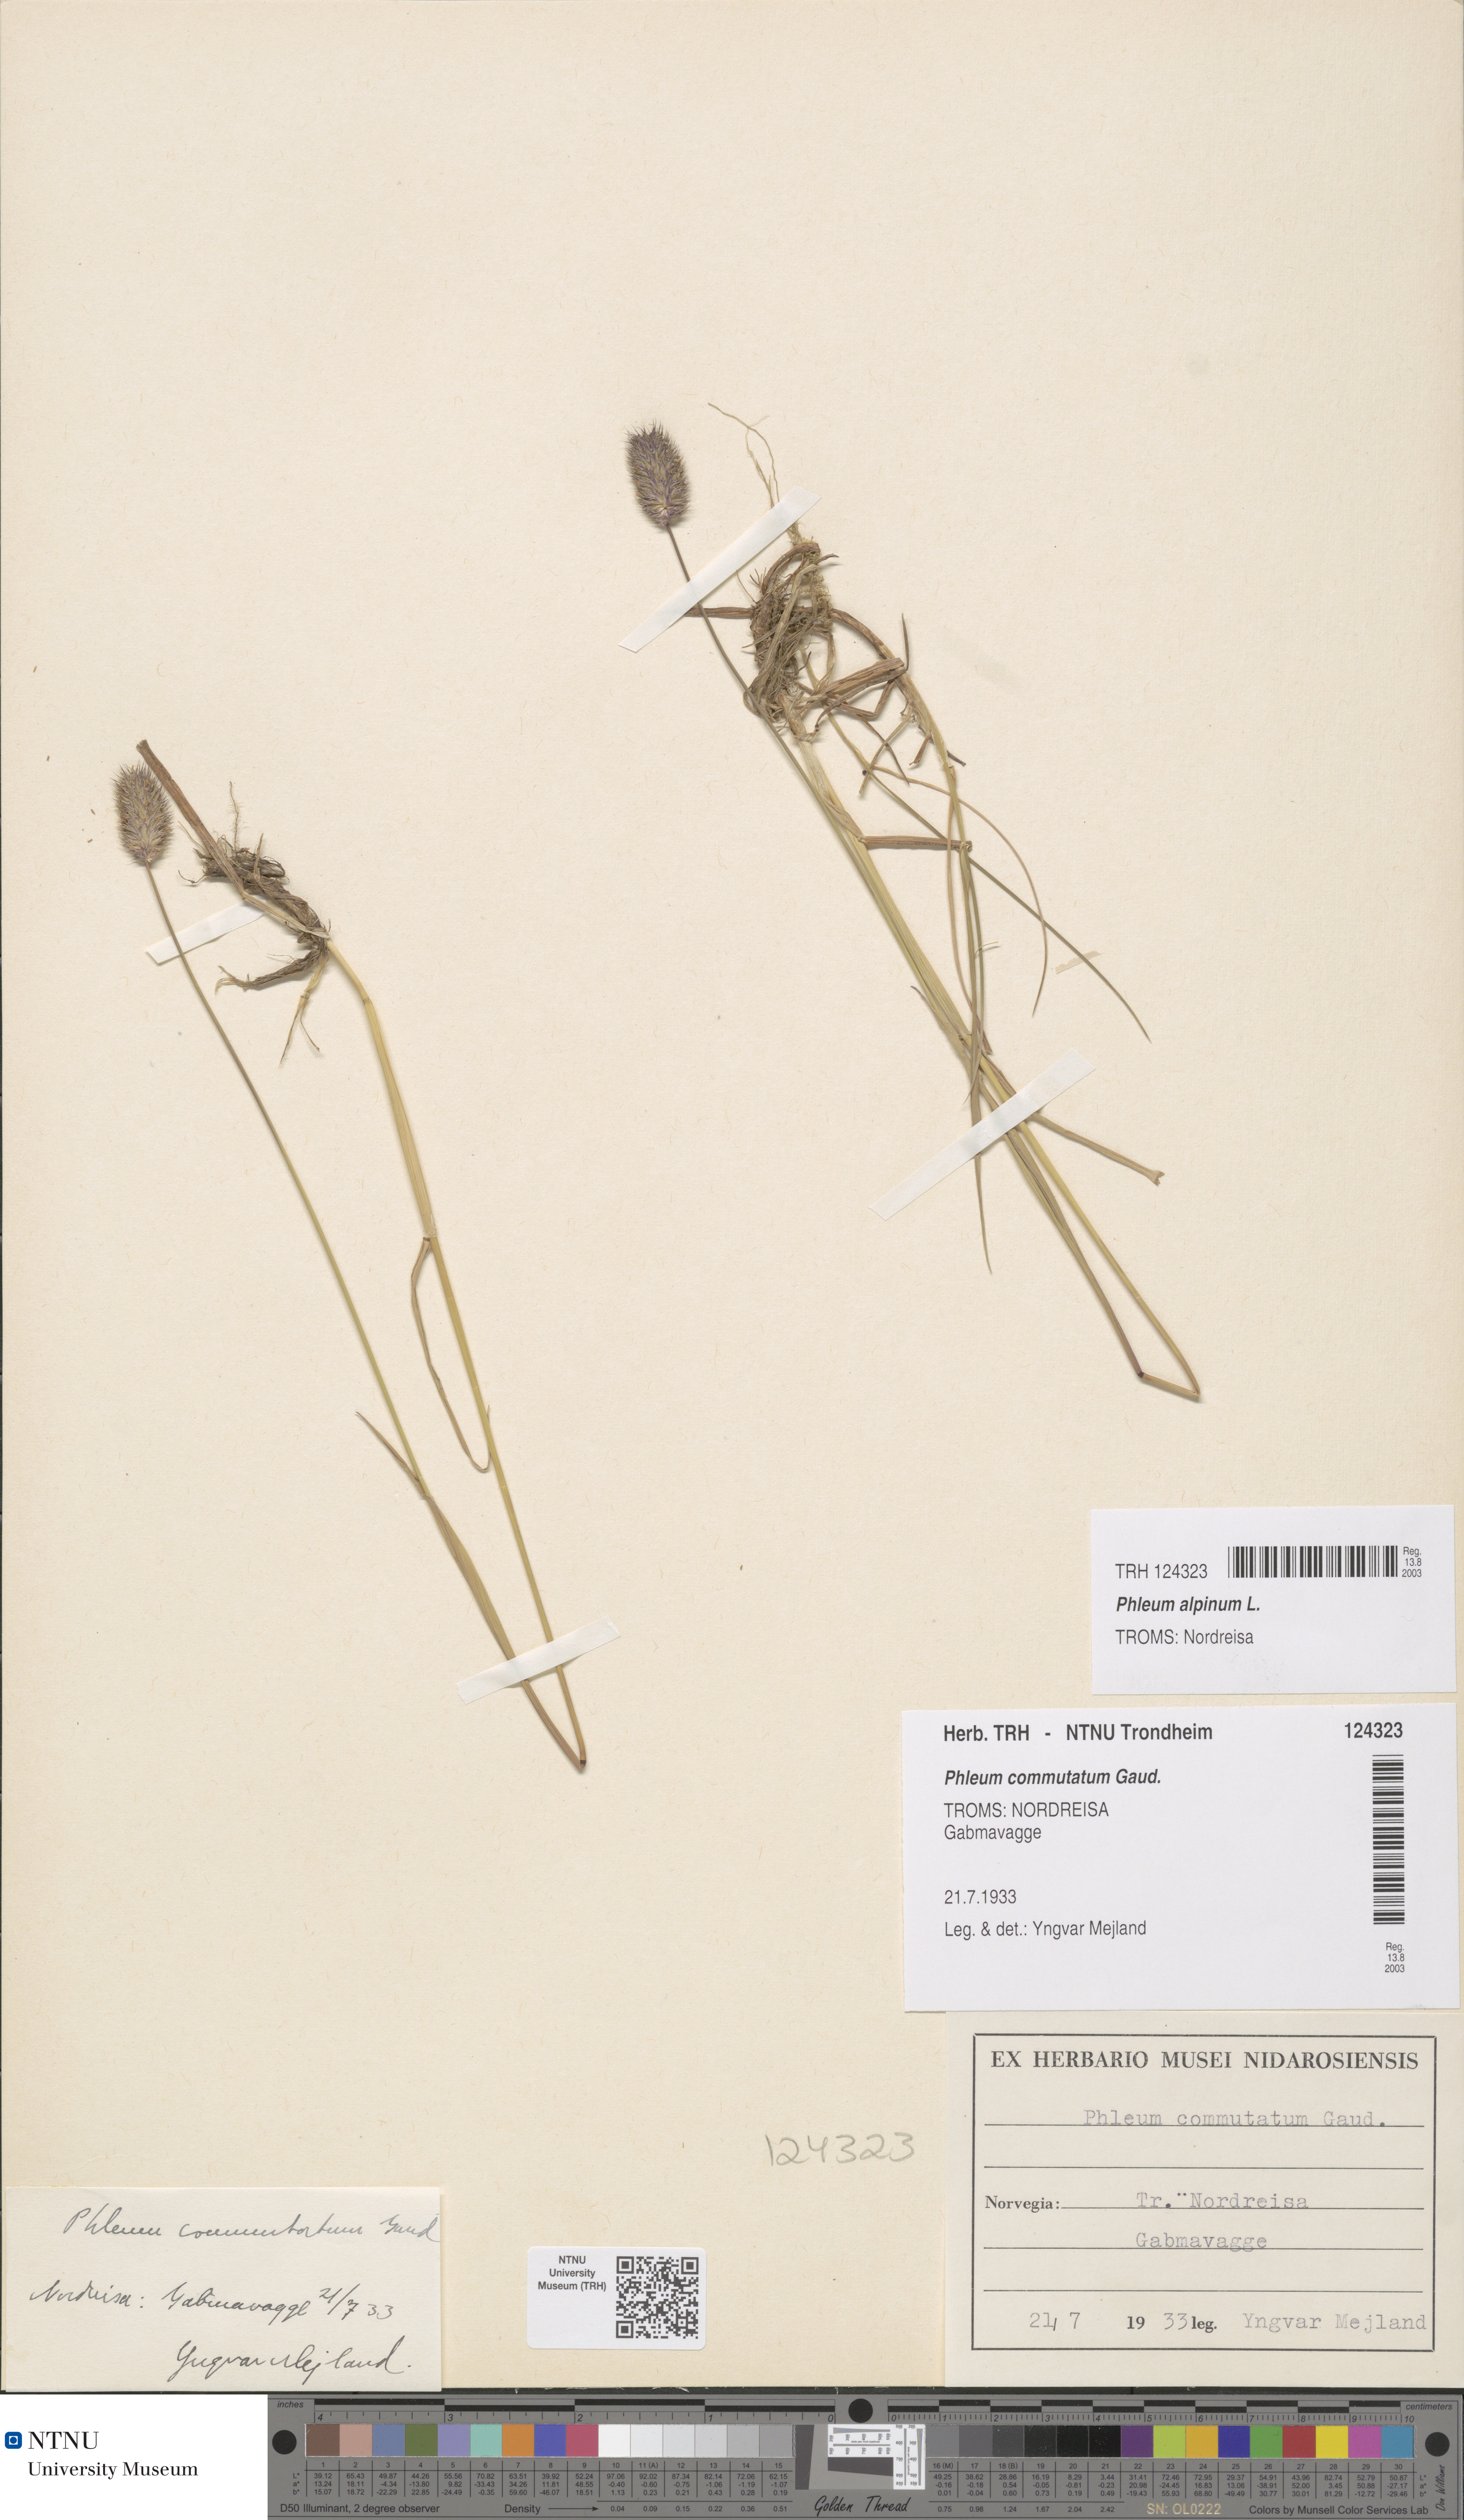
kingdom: Plantae
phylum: Tracheophyta
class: Liliopsida
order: Poales
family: Poaceae
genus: Phleum
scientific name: Phleum alpinum
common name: Alpine cat's-tail
